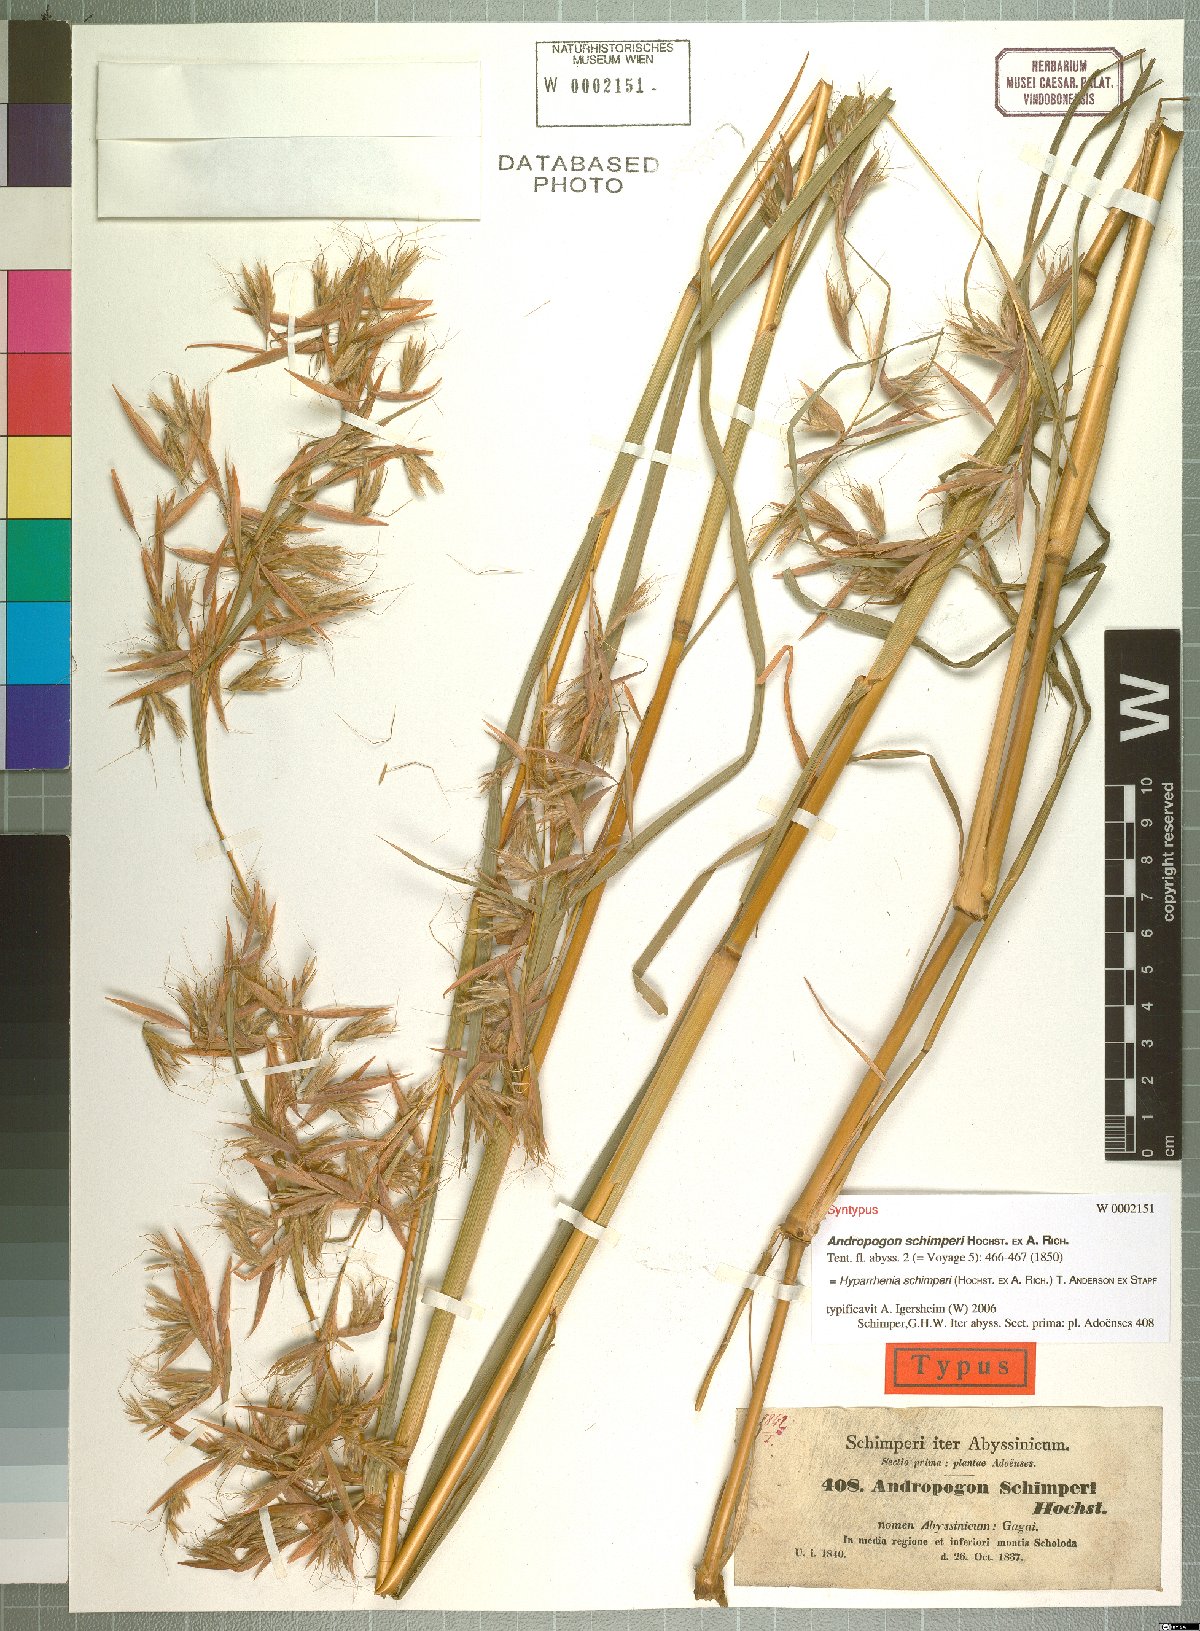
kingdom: Plantae
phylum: Tracheophyta
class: Liliopsida
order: Poales
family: Poaceae
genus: Hyparrhenia
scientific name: Hyparrhenia schimperi
